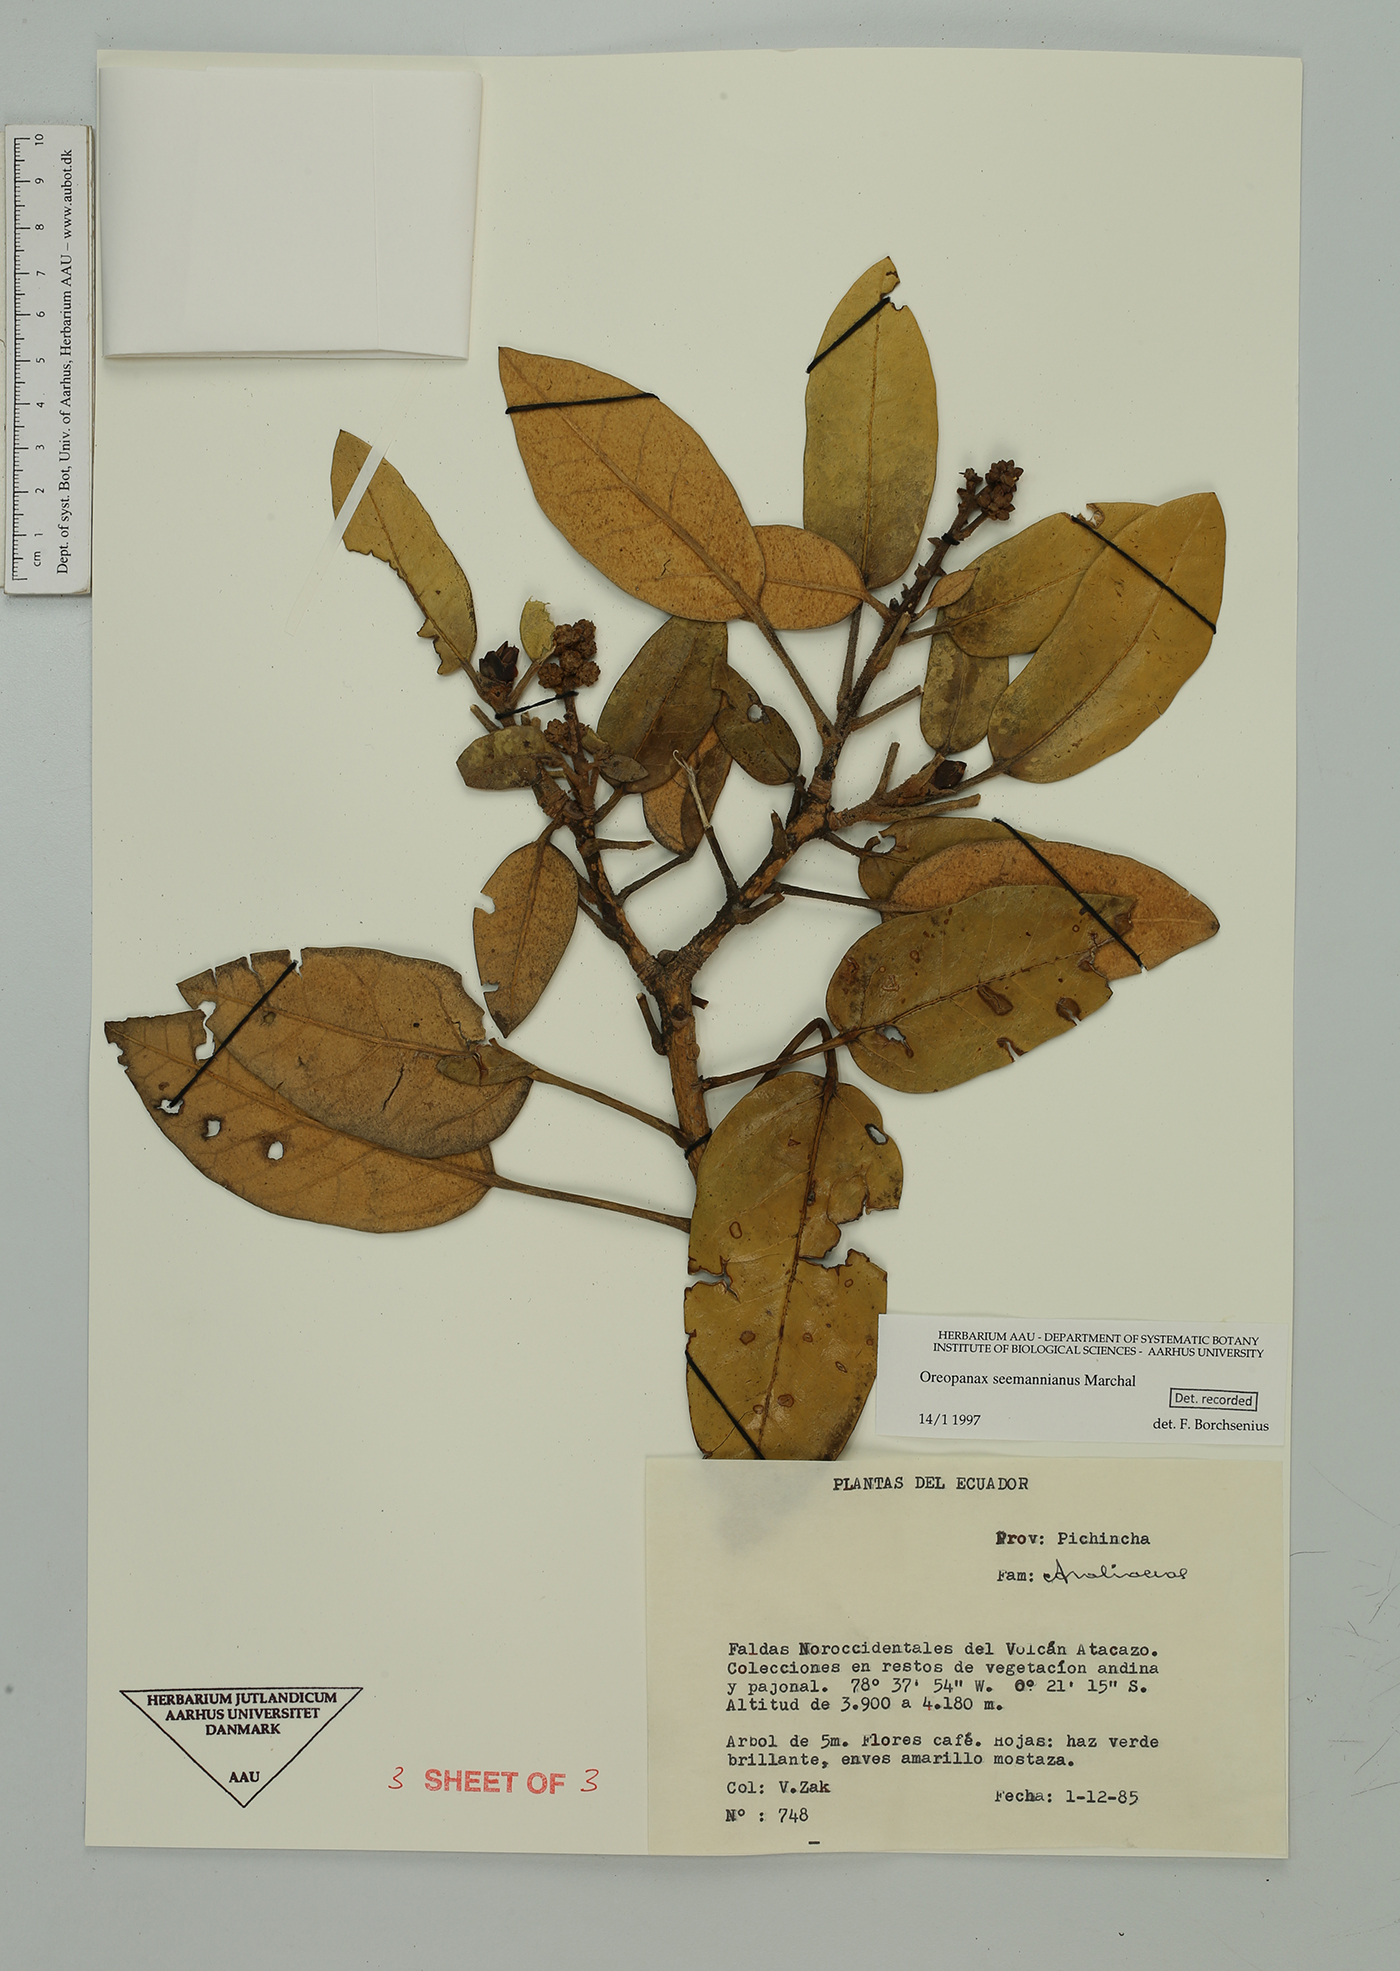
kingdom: Plantae
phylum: Tracheophyta
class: Magnoliopsida
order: Apiales
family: Araliaceae
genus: Oreopanax
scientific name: Oreopanax seemannianus
